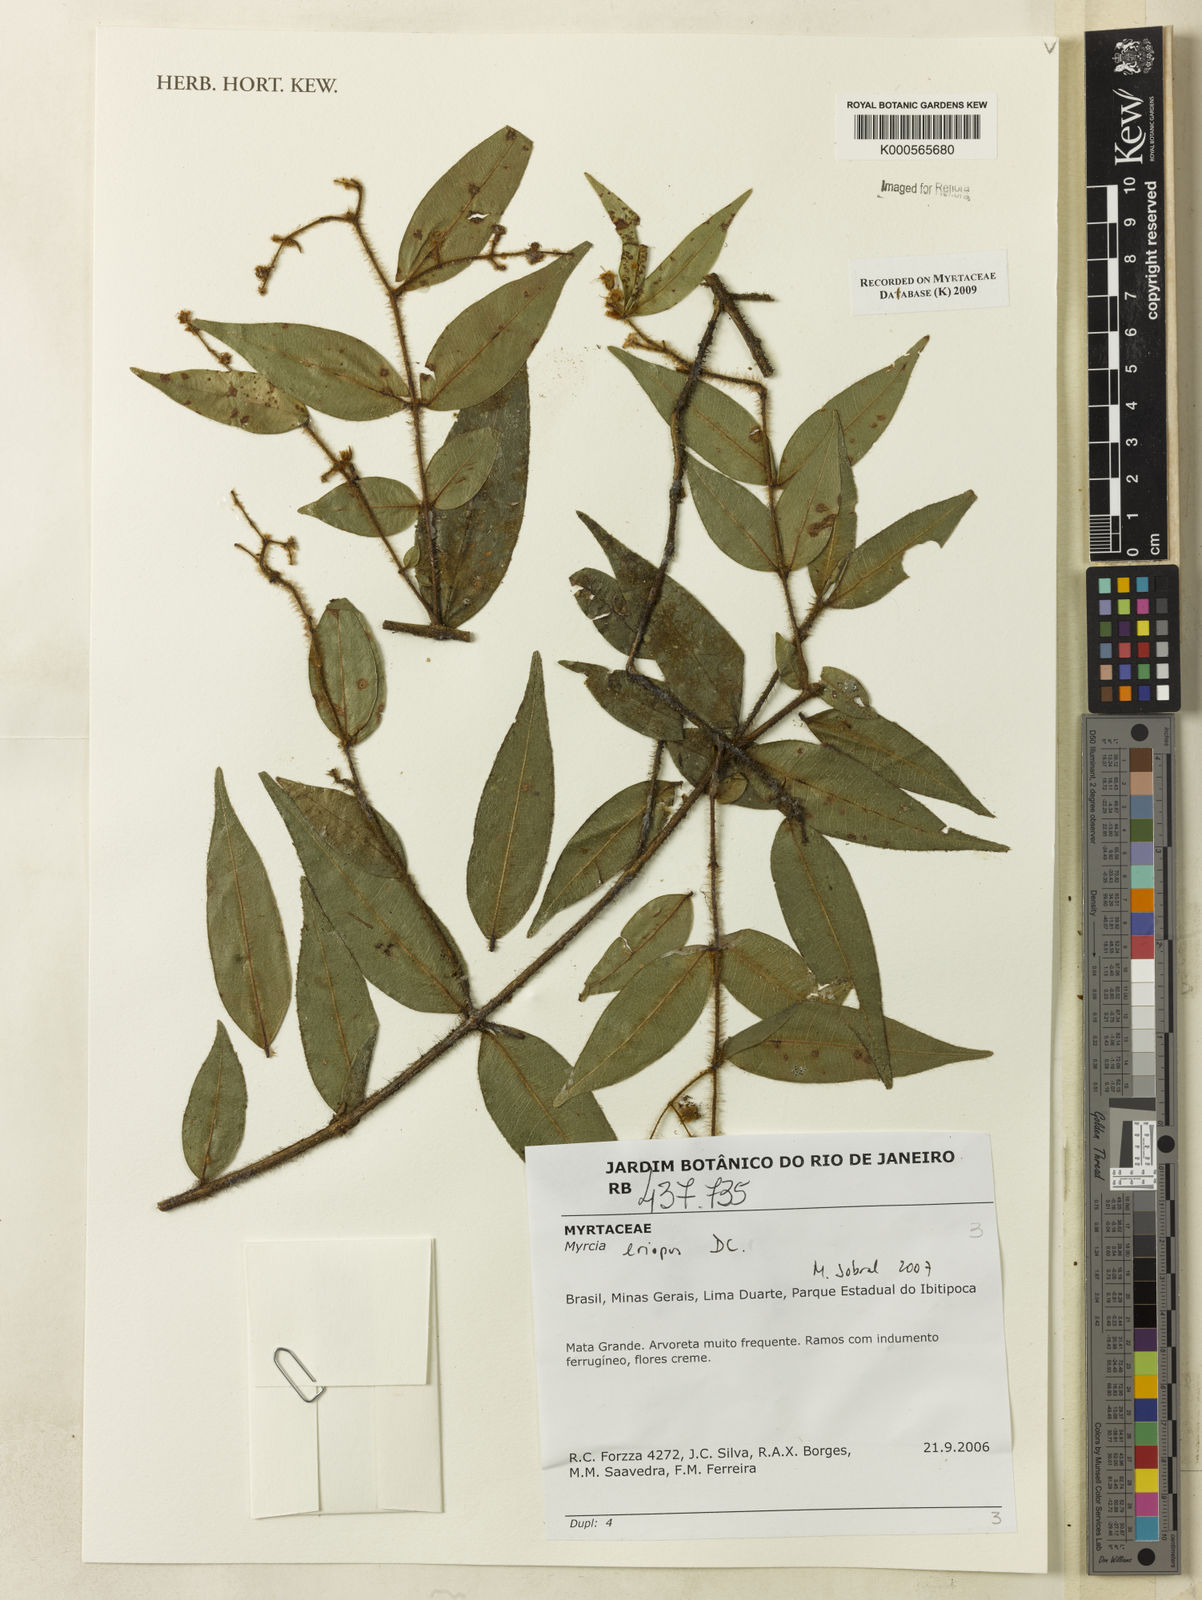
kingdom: Plantae
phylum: Tracheophyta
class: Magnoliopsida
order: Myrtales
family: Myrtaceae
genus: Myrcia
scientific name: Myrcia eriopus
